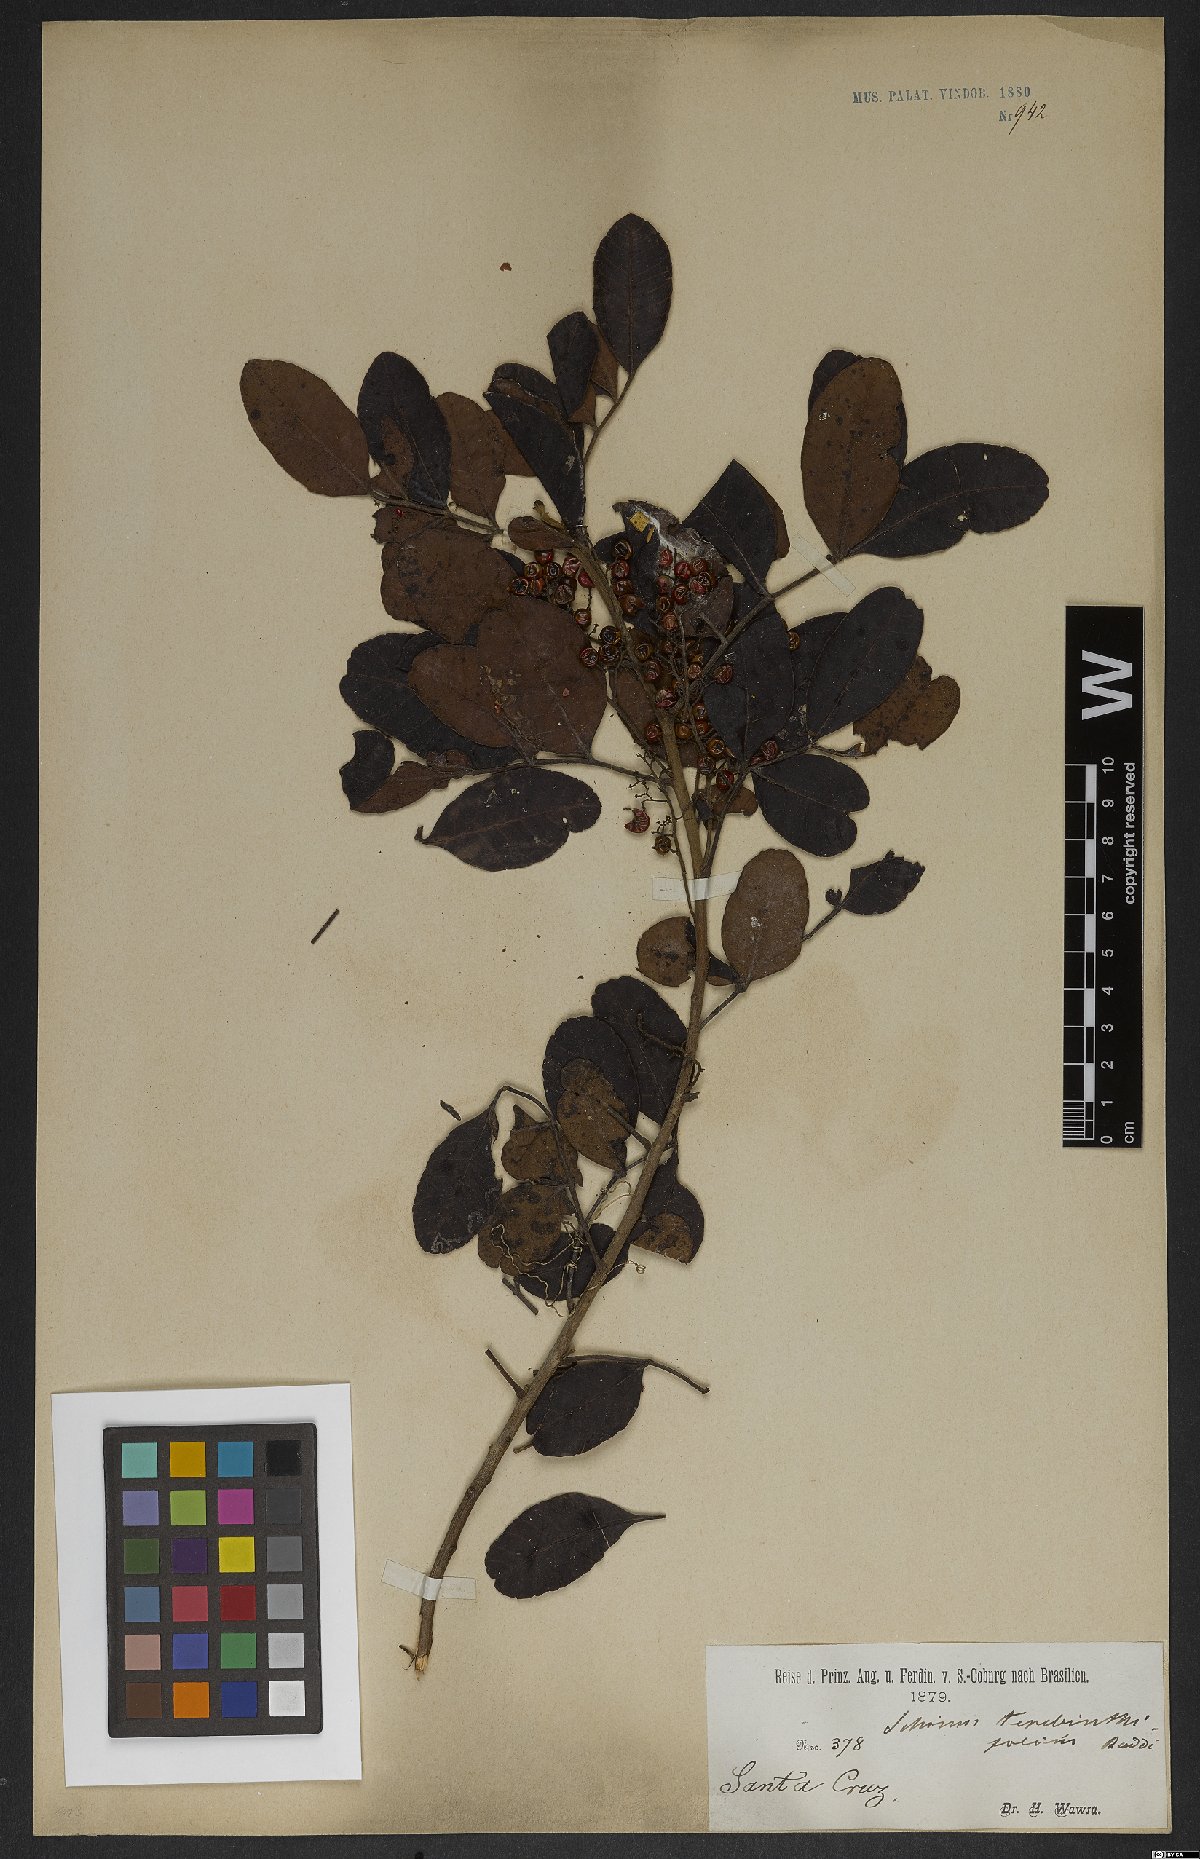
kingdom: Plantae
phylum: Tracheophyta
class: Magnoliopsida
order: Sapindales
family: Anacardiaceae
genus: Schinus
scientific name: Schinus terebinthifolia
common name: Brazilian peppertree
